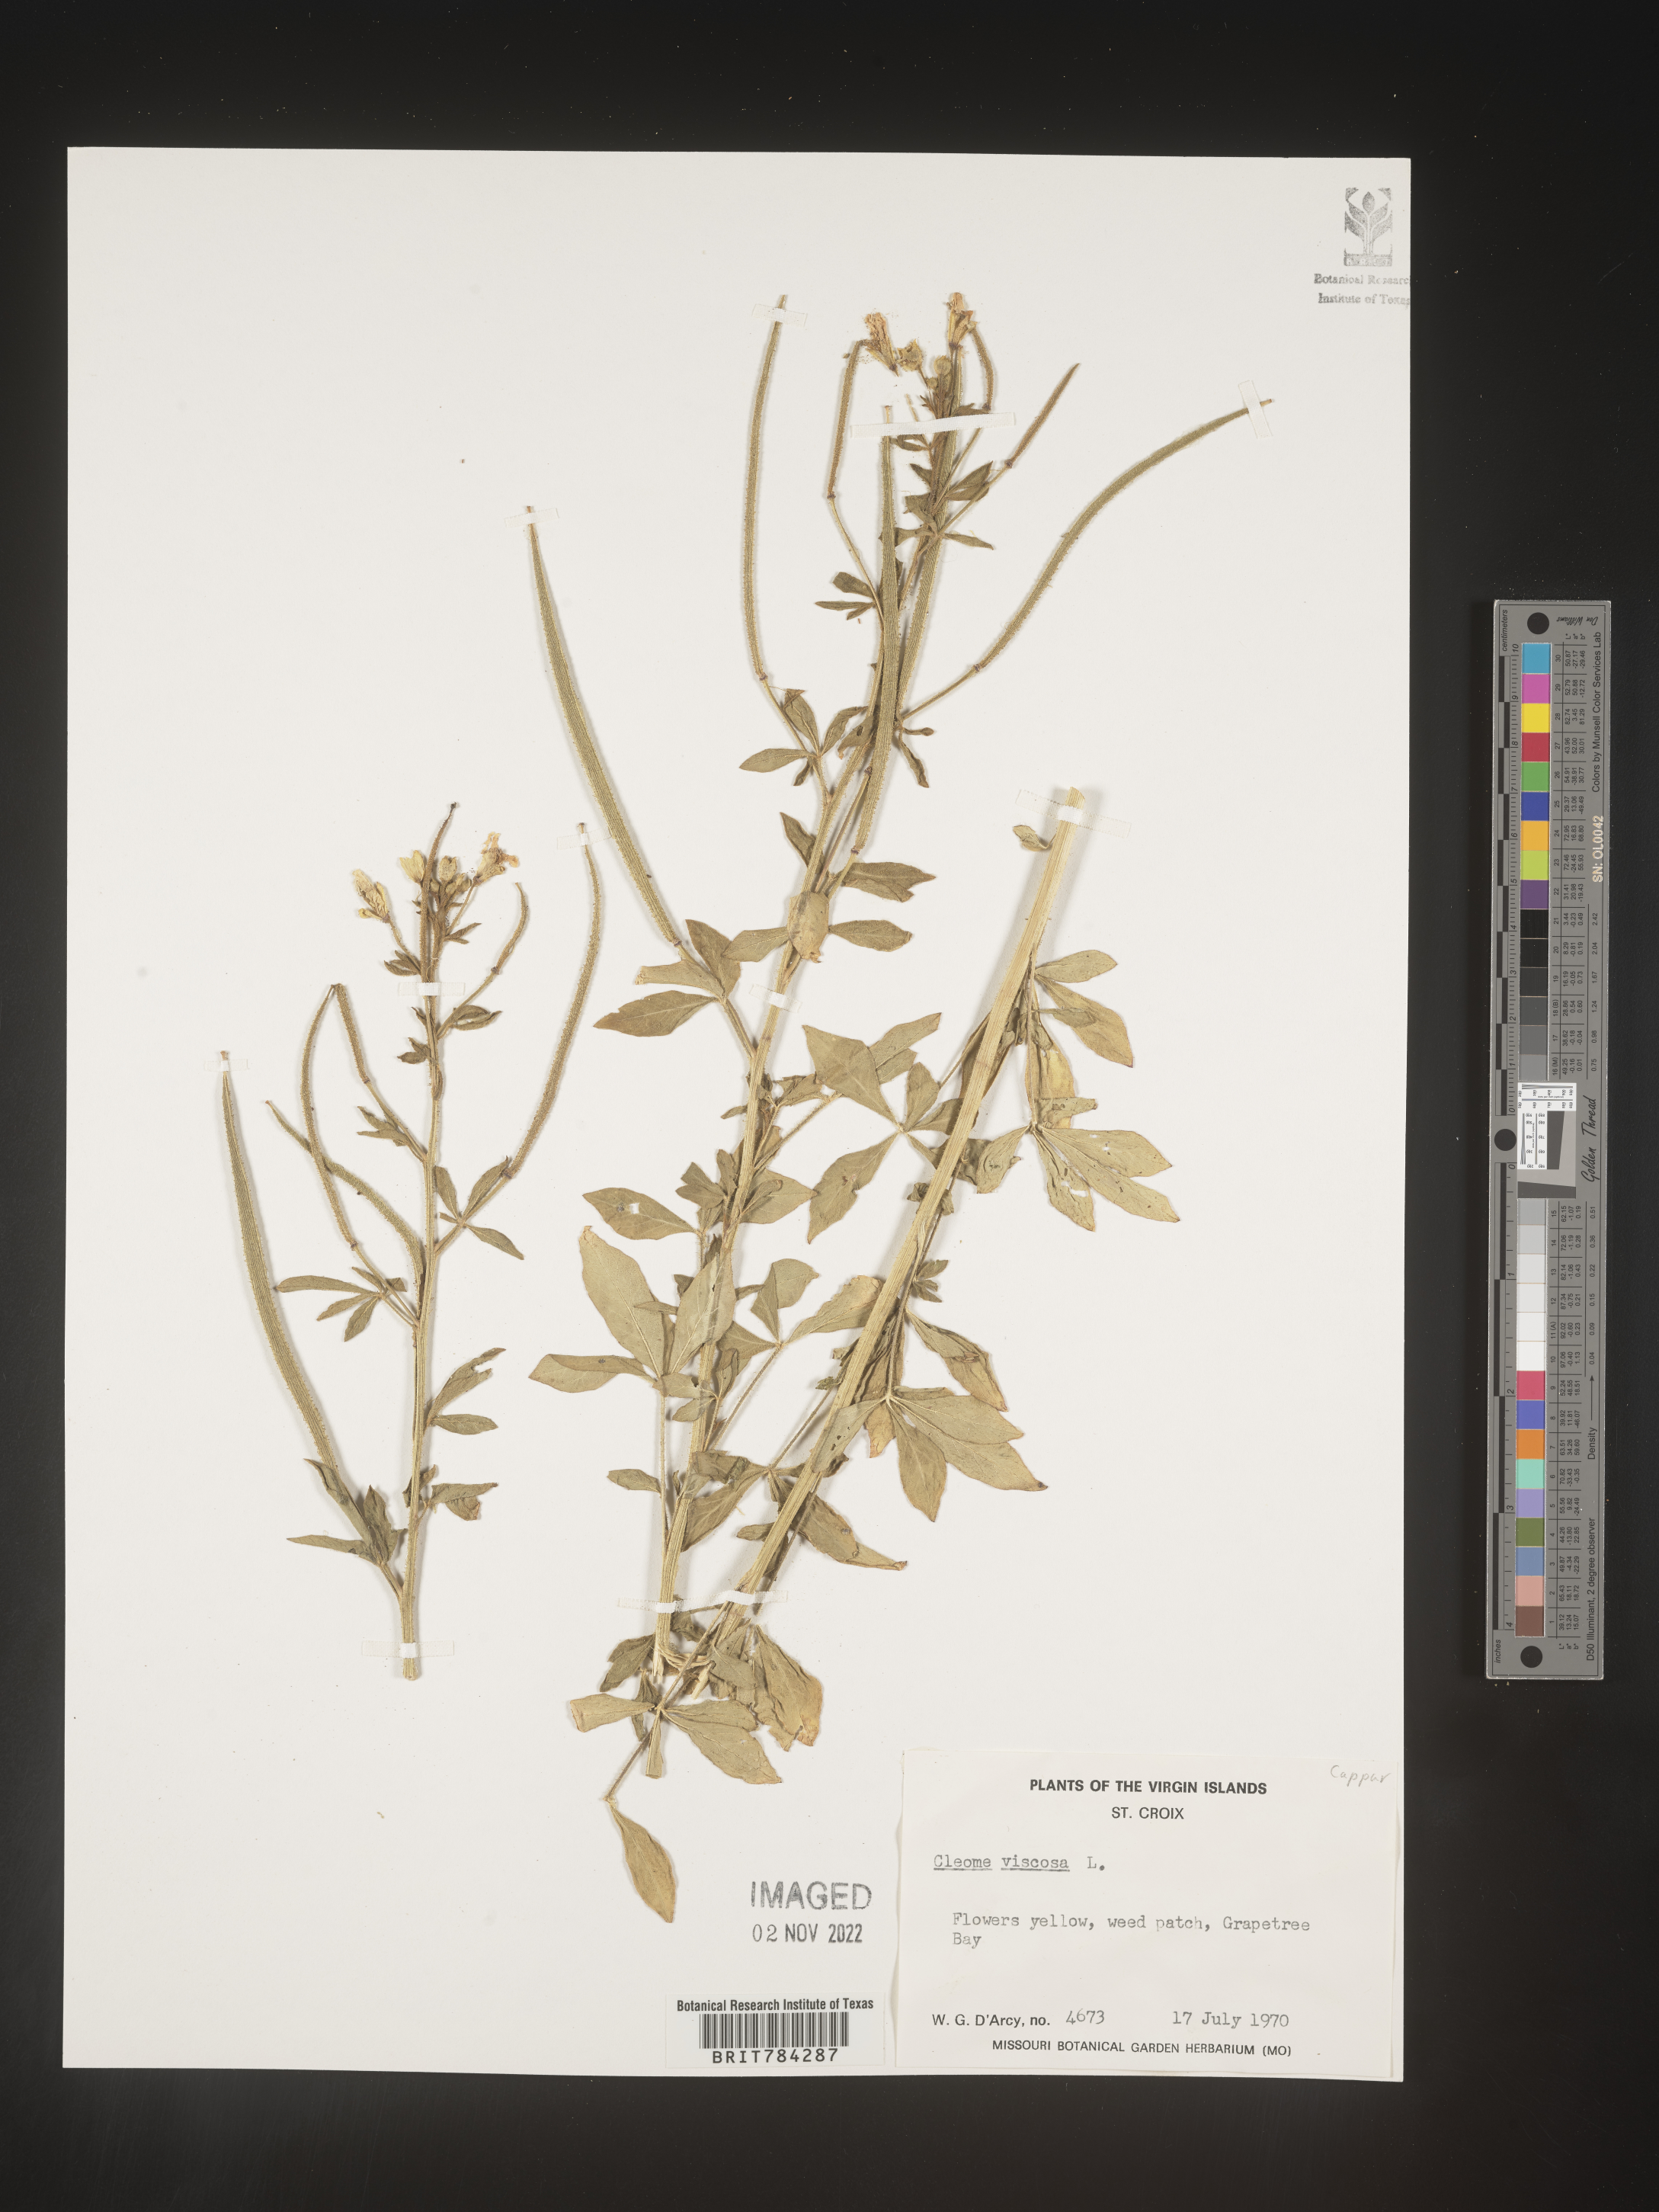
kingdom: Plantae
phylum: Tracheophyta
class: Magnoliopsida
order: Brassicales
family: Cleomaceae
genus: Cleome
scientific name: Cleome
